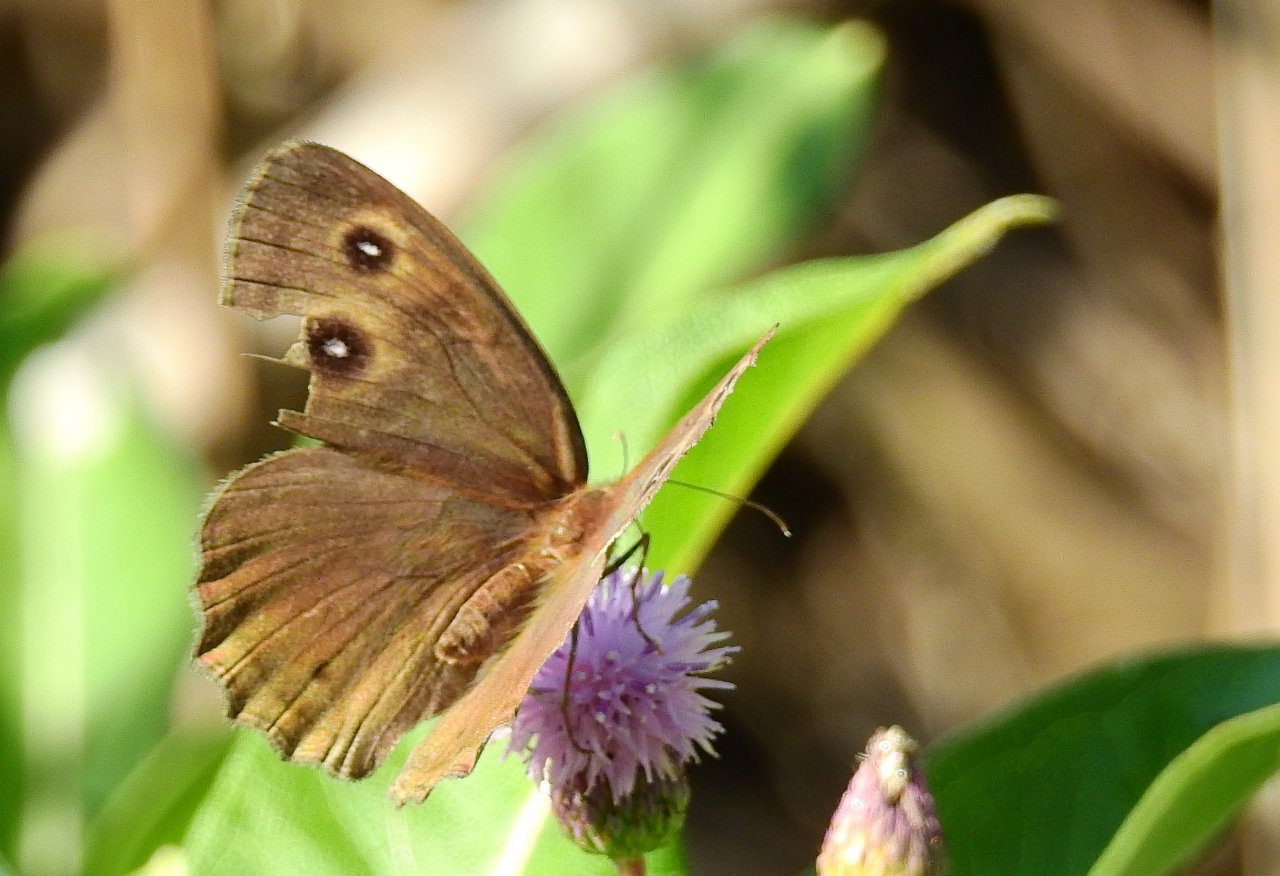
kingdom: Animalia
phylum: Arthropoda
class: Insecta
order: Lepidoptera
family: Nymphalidae
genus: Cercyonis
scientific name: Cercyonis pegala
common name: Common Wood-Nymph
